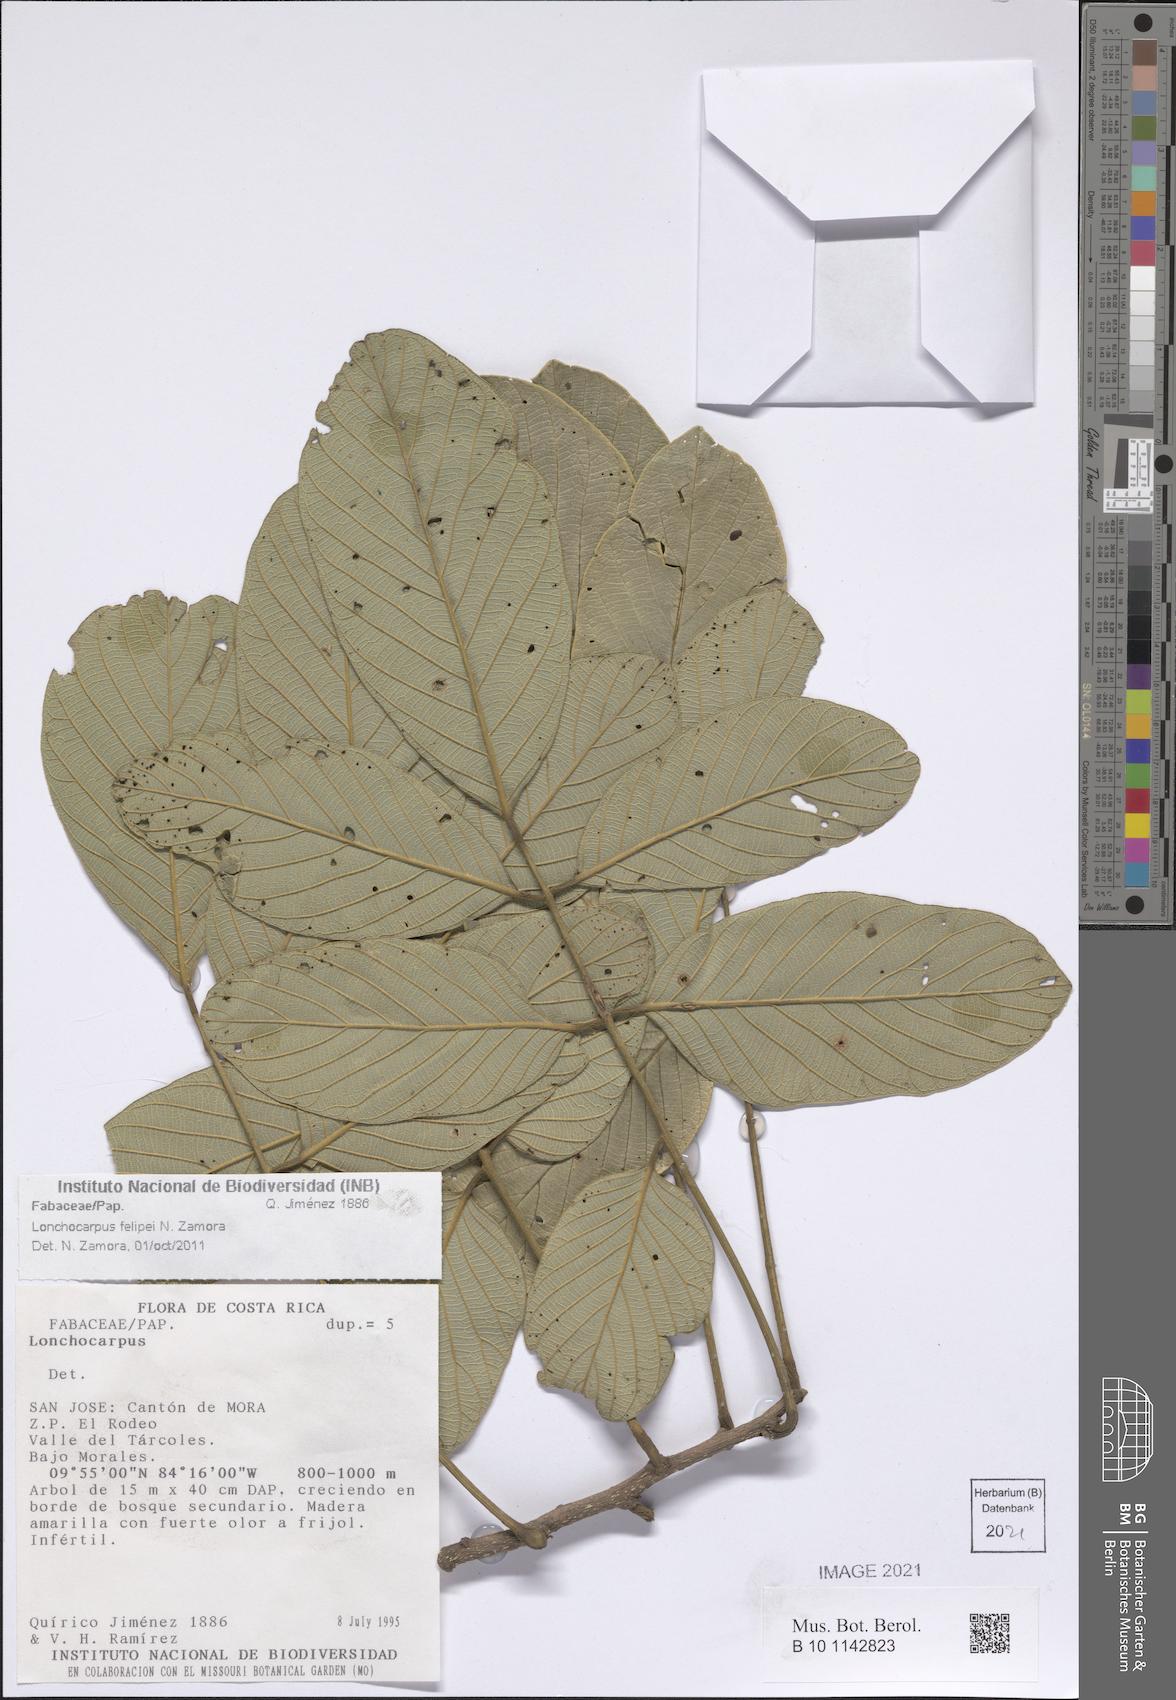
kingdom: Plantae
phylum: Tracheophyta
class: Magnoliopsida
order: Fabales
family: Fabaceae
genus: Lonchocarpus
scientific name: Lonchocarpus felipei
